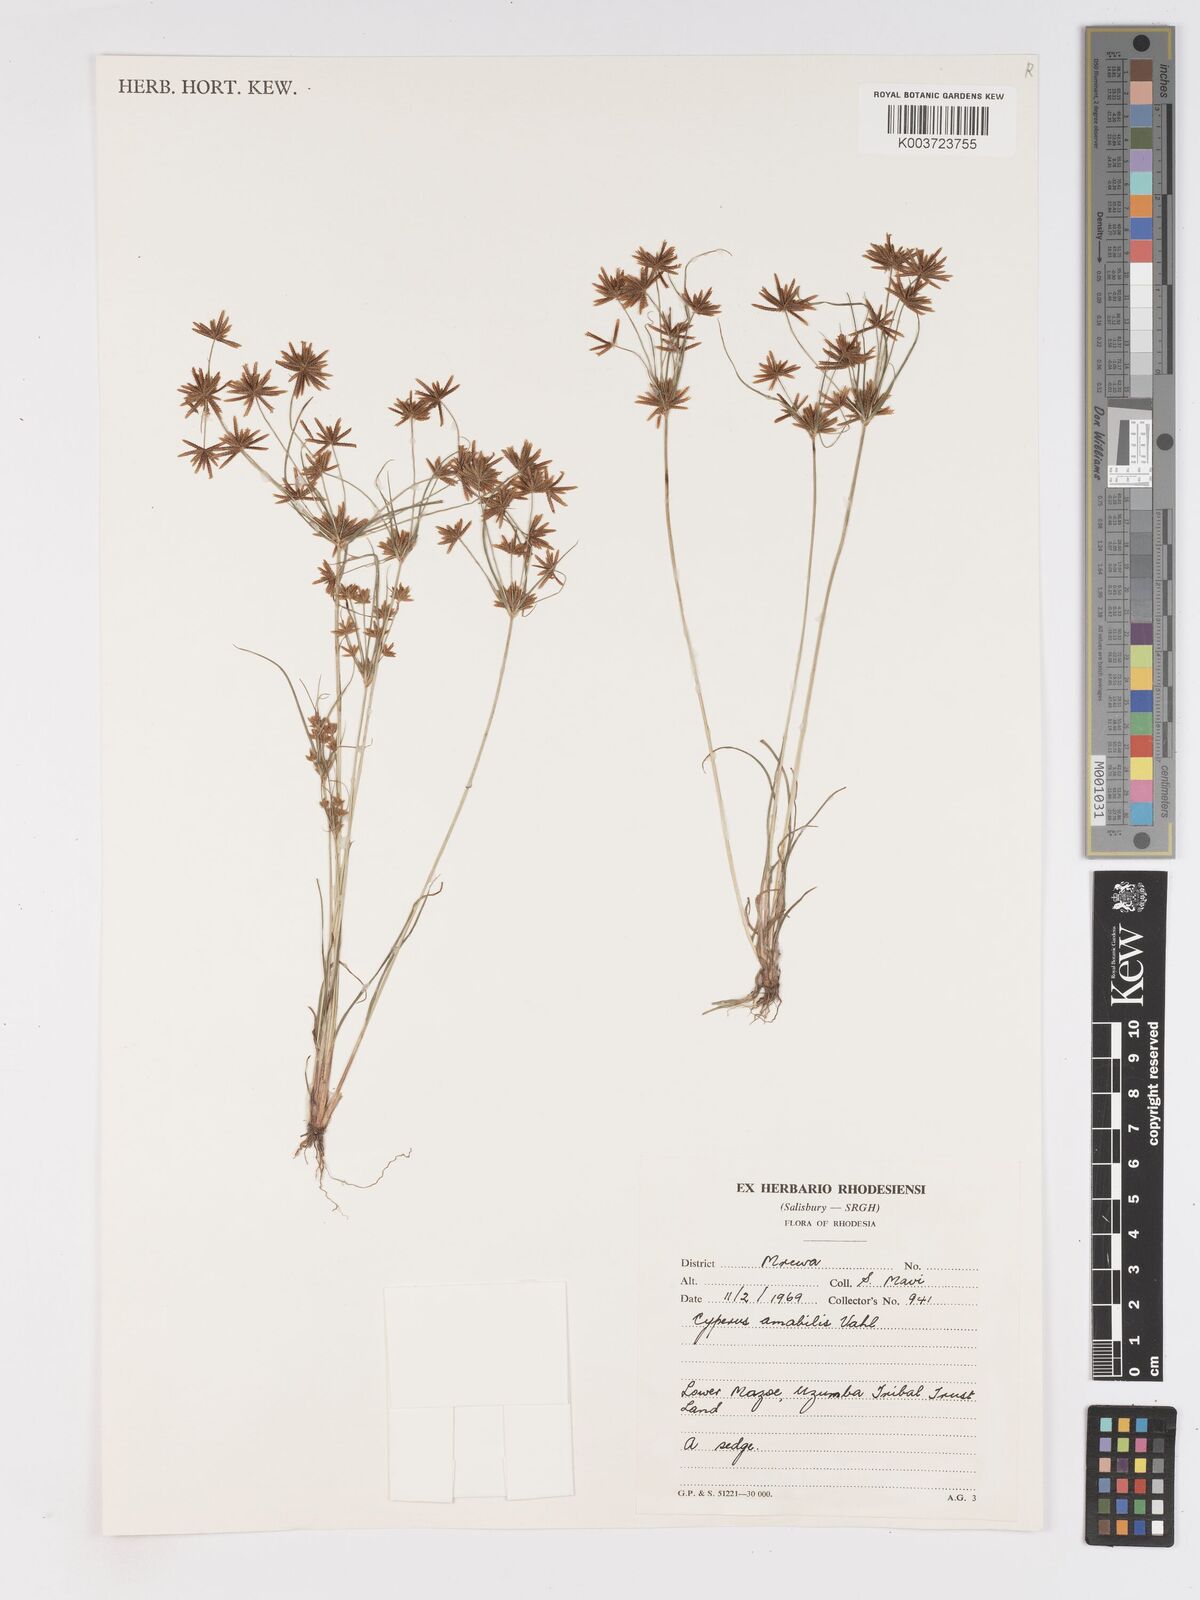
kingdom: Plantae
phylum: Tracheophyta
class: Liliopsida
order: Poales
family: Cyperaceae
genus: Cyperus
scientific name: Cyperus amabilis
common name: Foothill flat sedge
